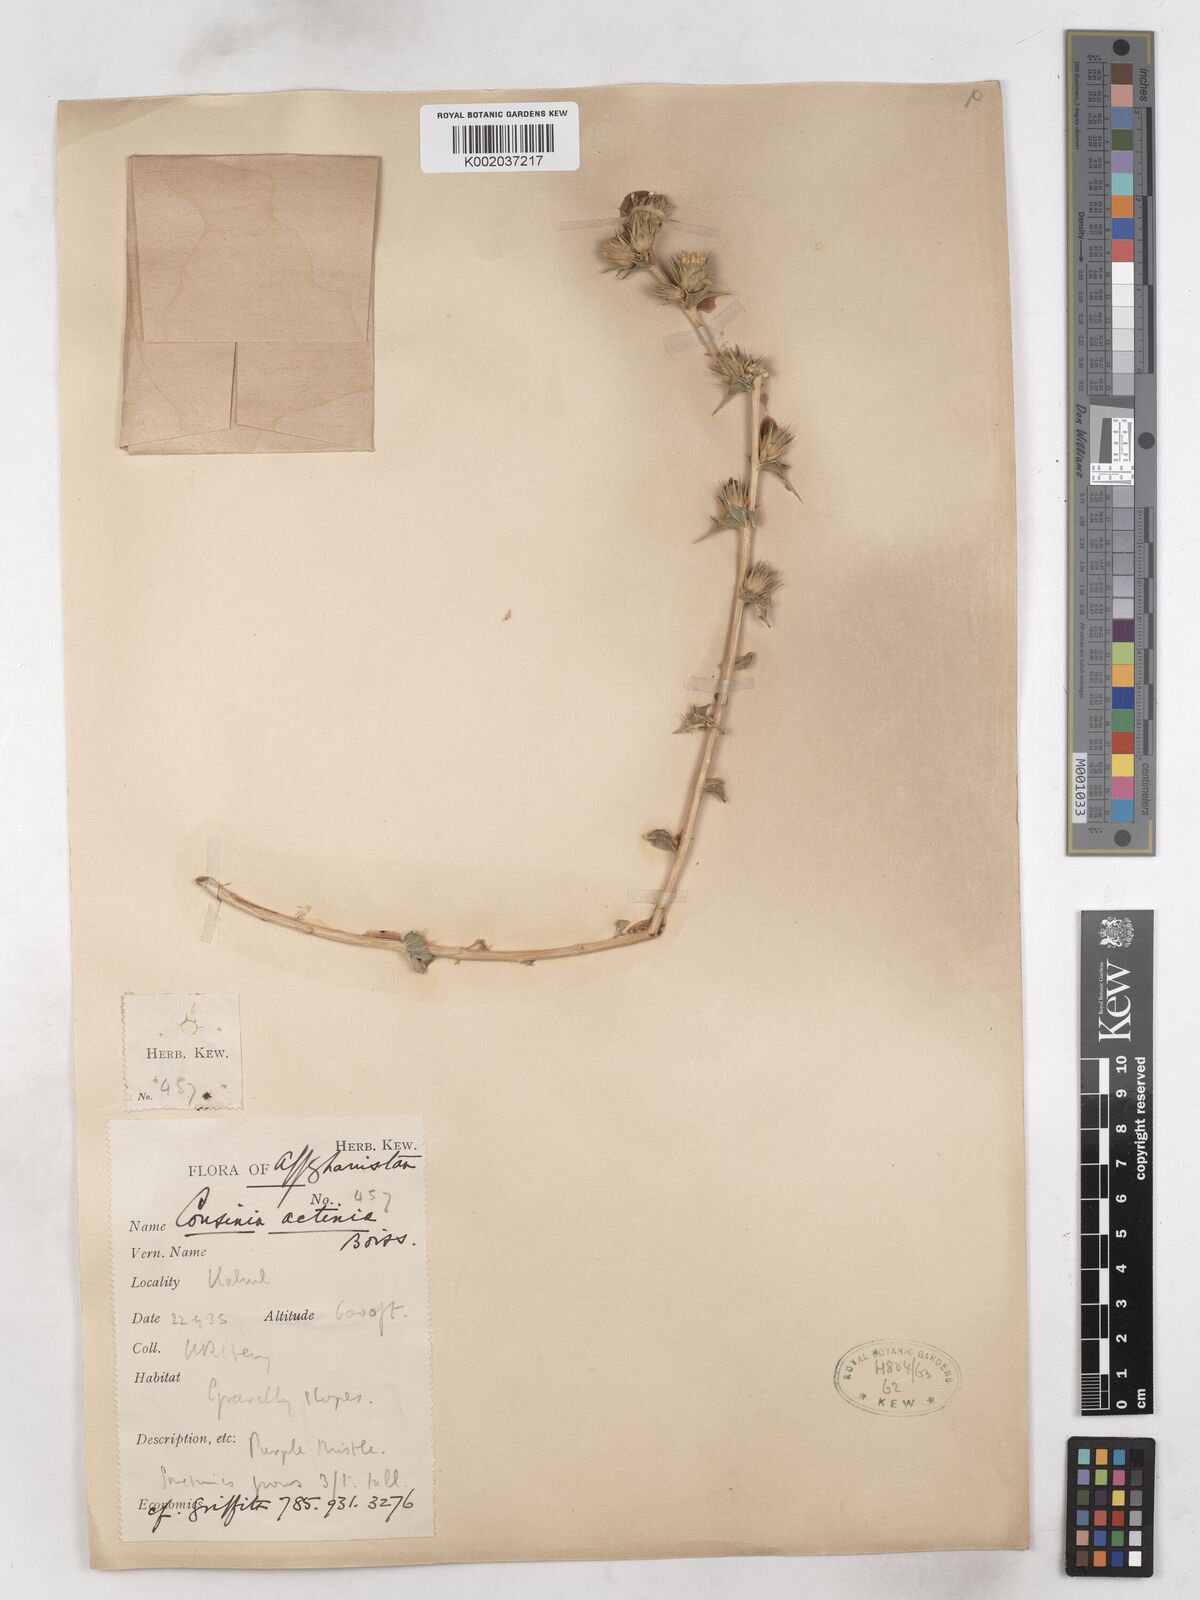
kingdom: Plantae
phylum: Tracheophyta
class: Magnoliopsida
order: Asterales
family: Asteraceae
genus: Cousinia
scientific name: Cousinia actinia
